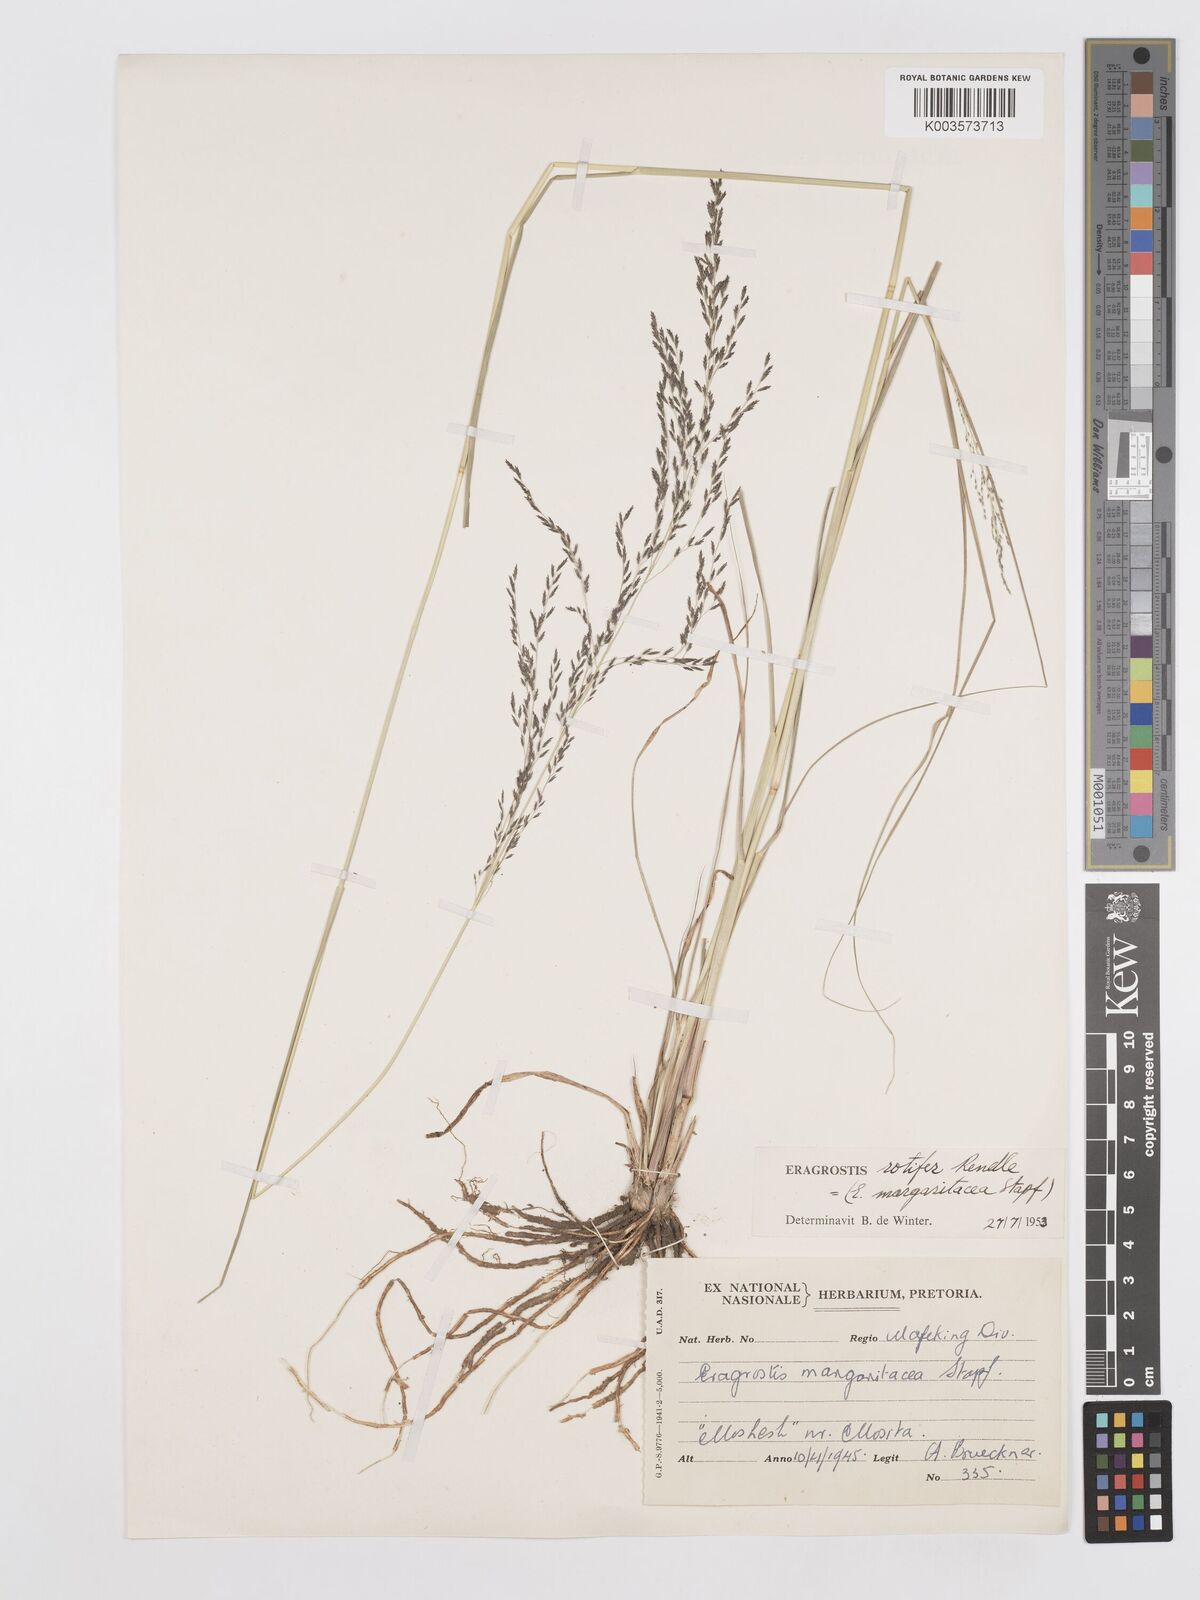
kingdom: Plantae
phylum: Tracheophyta
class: Liliopsida
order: Poales
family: Poaceae
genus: Eragrostis
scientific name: Eragrostis rotifer
